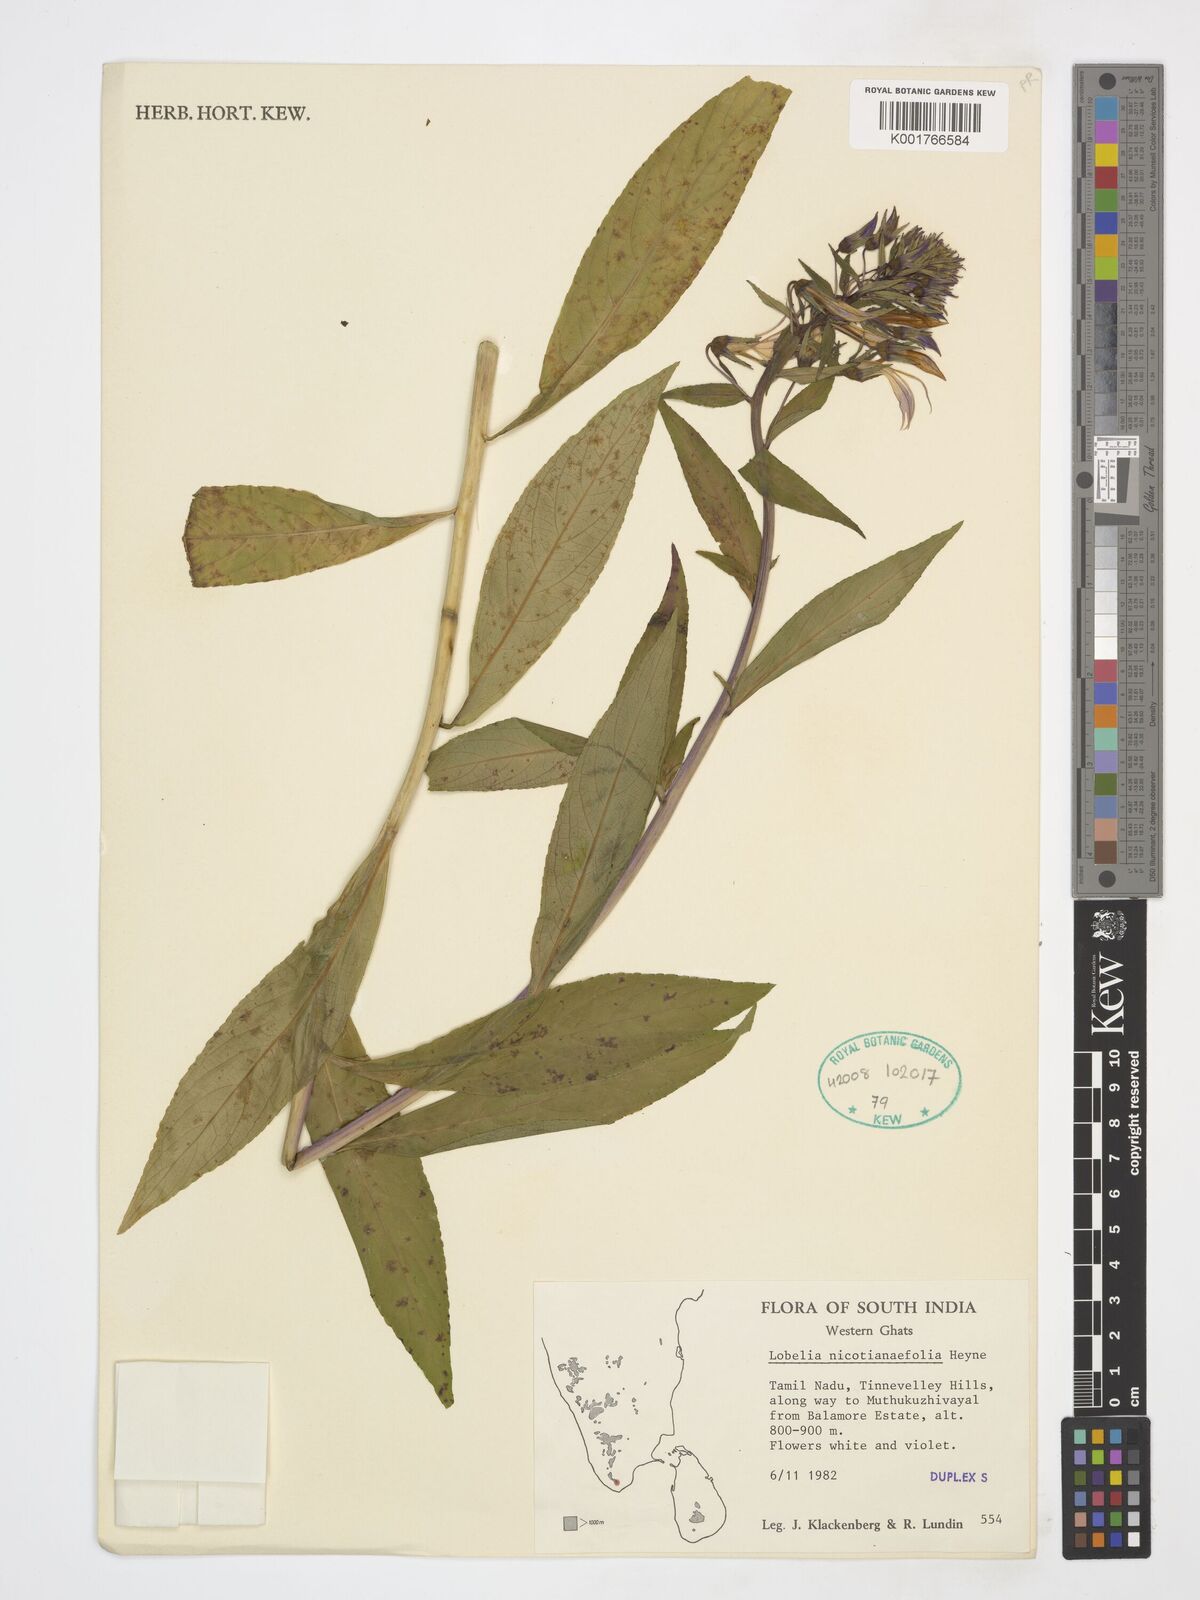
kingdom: Plantae
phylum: Tracheophyta
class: Magnoliopsida
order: Asterales
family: Campanulaceae
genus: Lobelia
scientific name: Lobelia nicotianifolia
